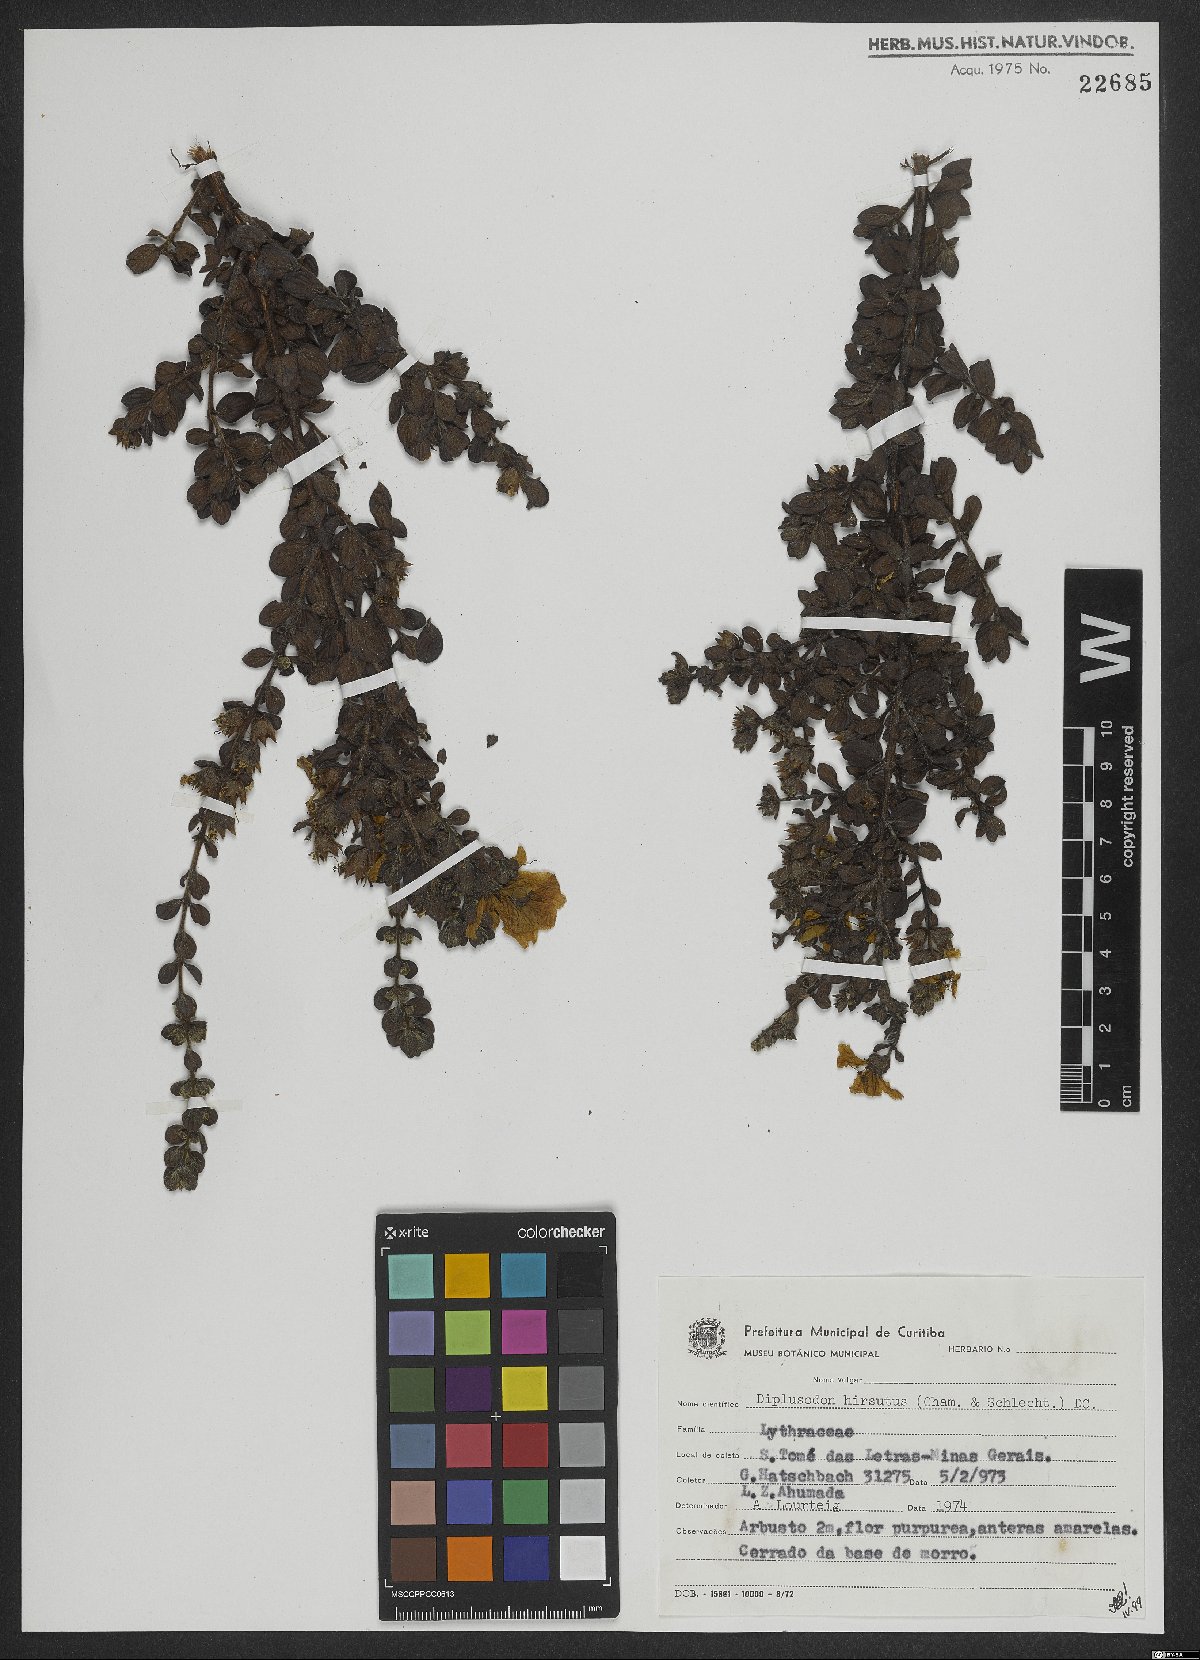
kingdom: Plantae
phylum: Tracheophyta
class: Magnoliopsida
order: Myrtales
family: Lythraceae
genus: Diplusodon
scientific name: Diplusodon hirsutus
